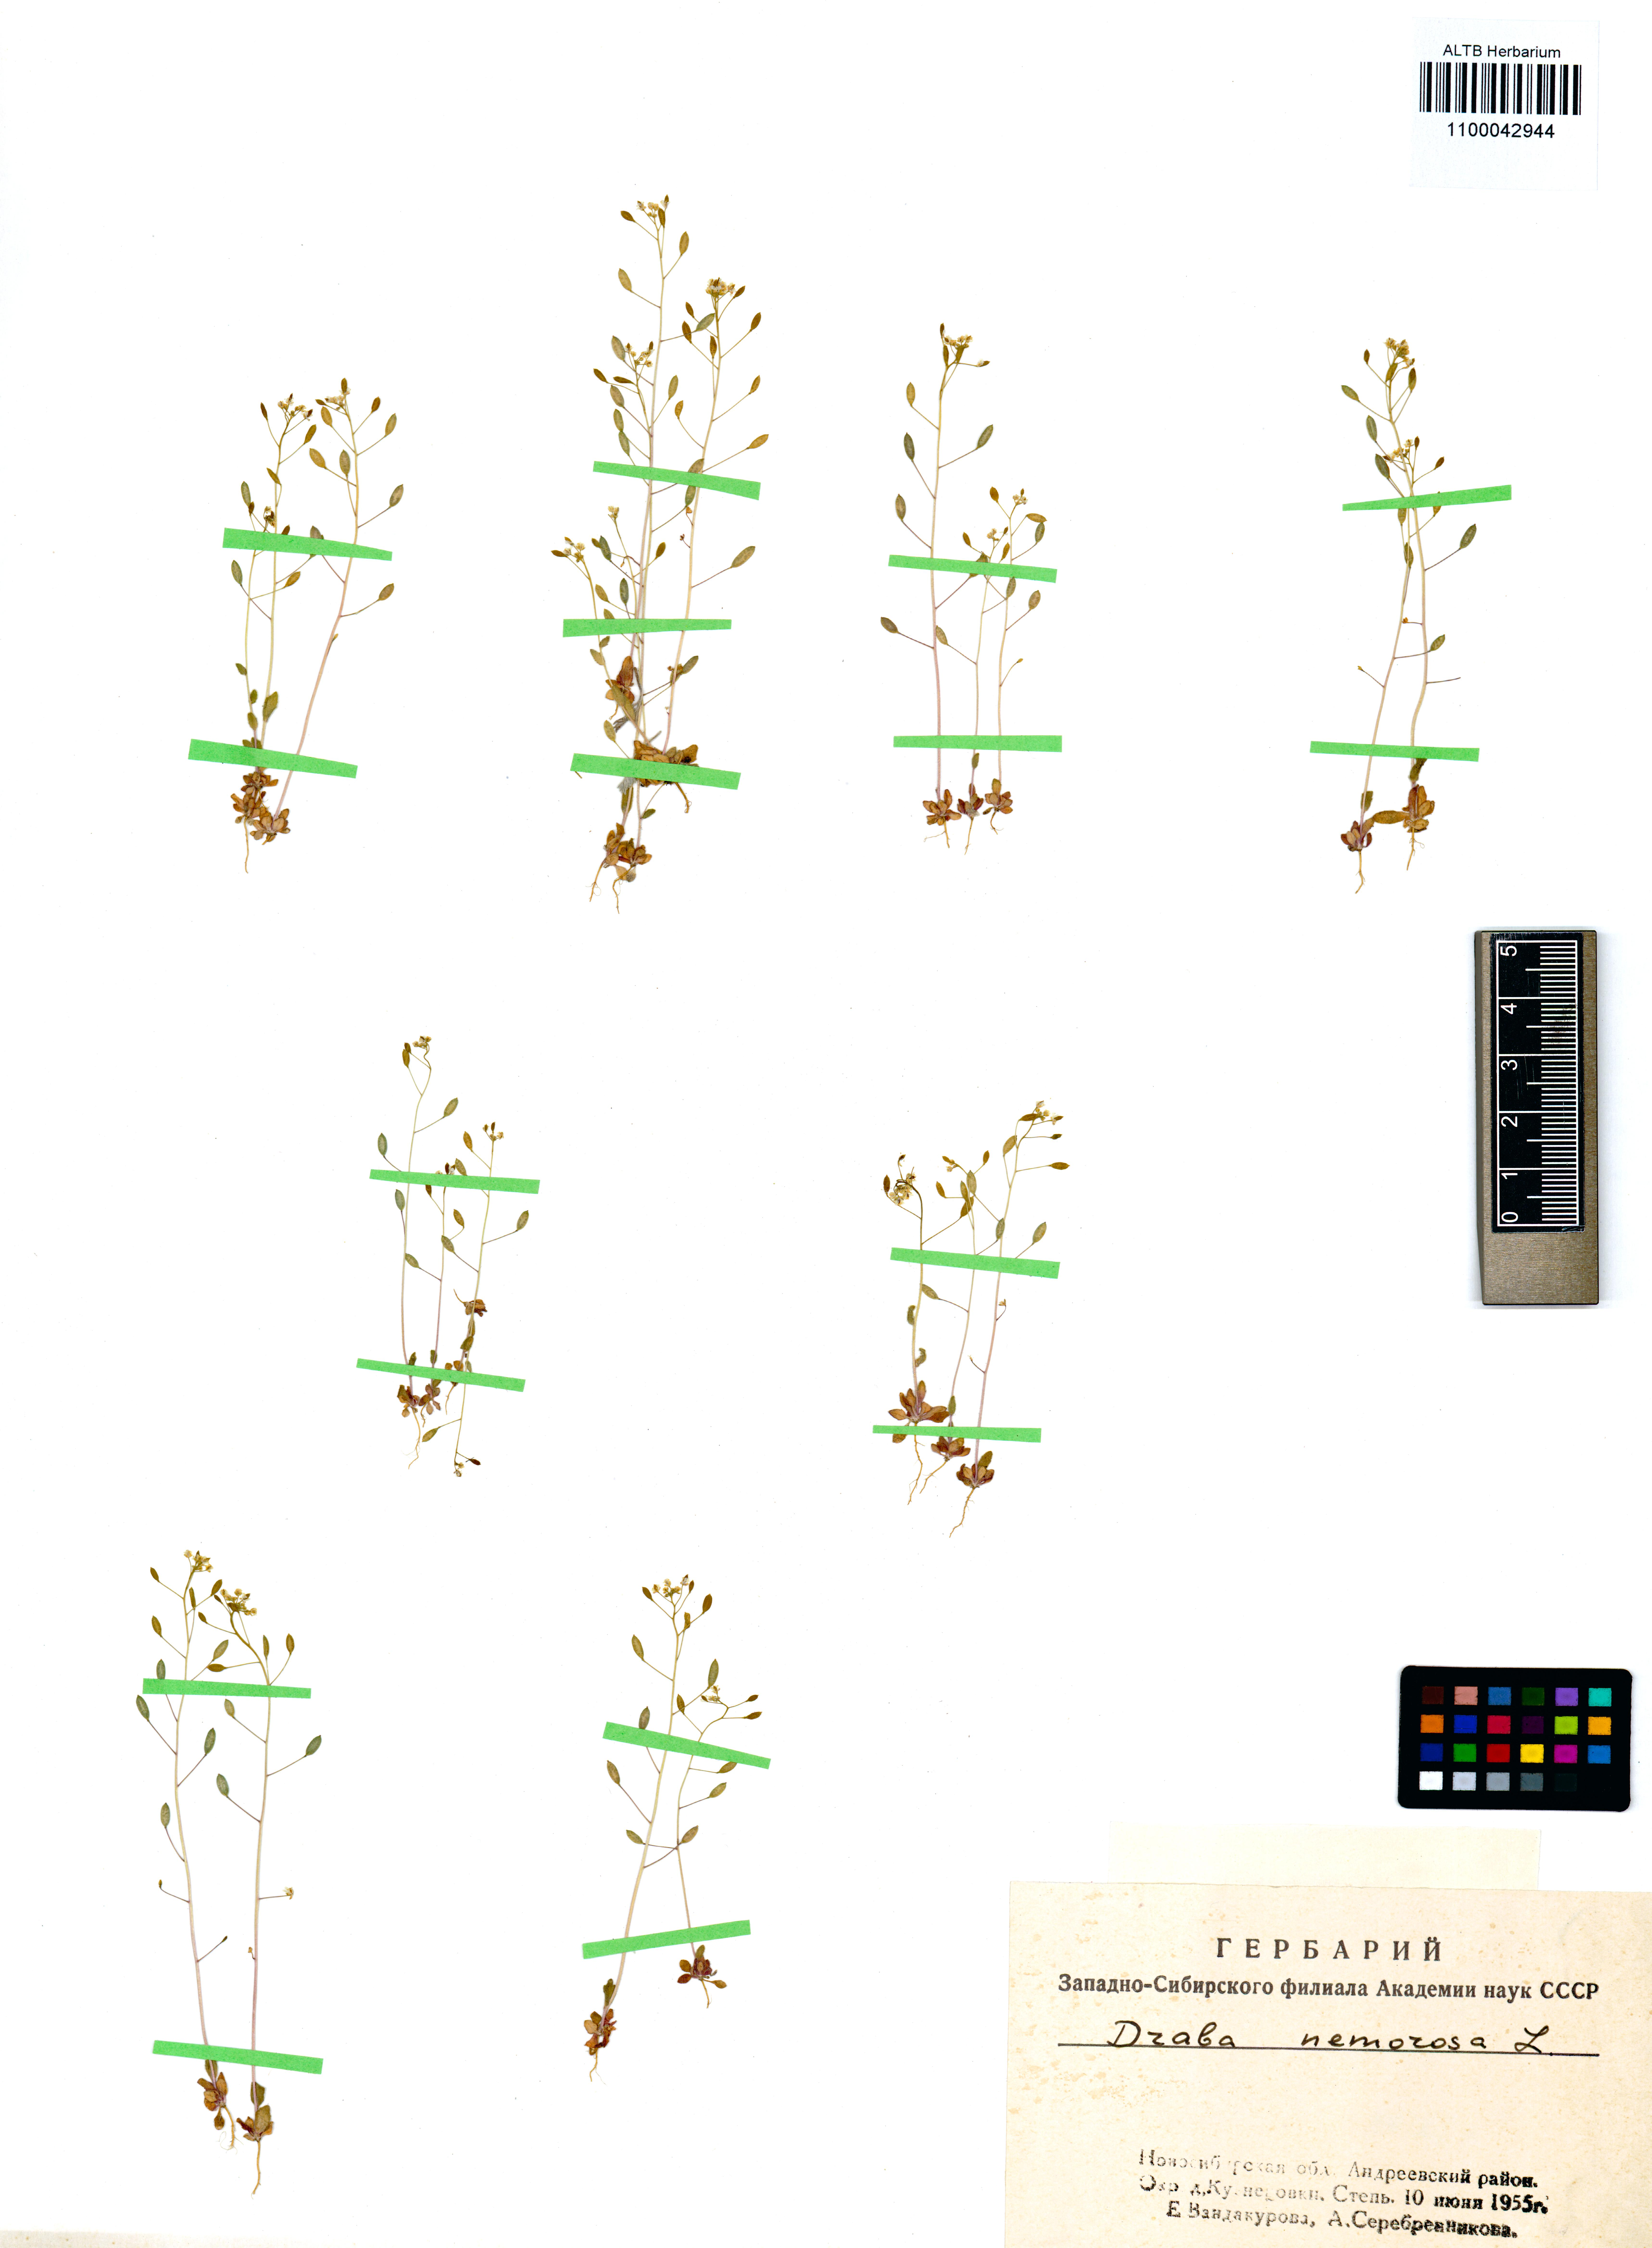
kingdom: Plantae
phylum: Tracheophyta
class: Magnoliopsida
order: Brassicales
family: Brassicaceae
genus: Draba
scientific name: Draba nemorosa
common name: Wood whitlow-grass
